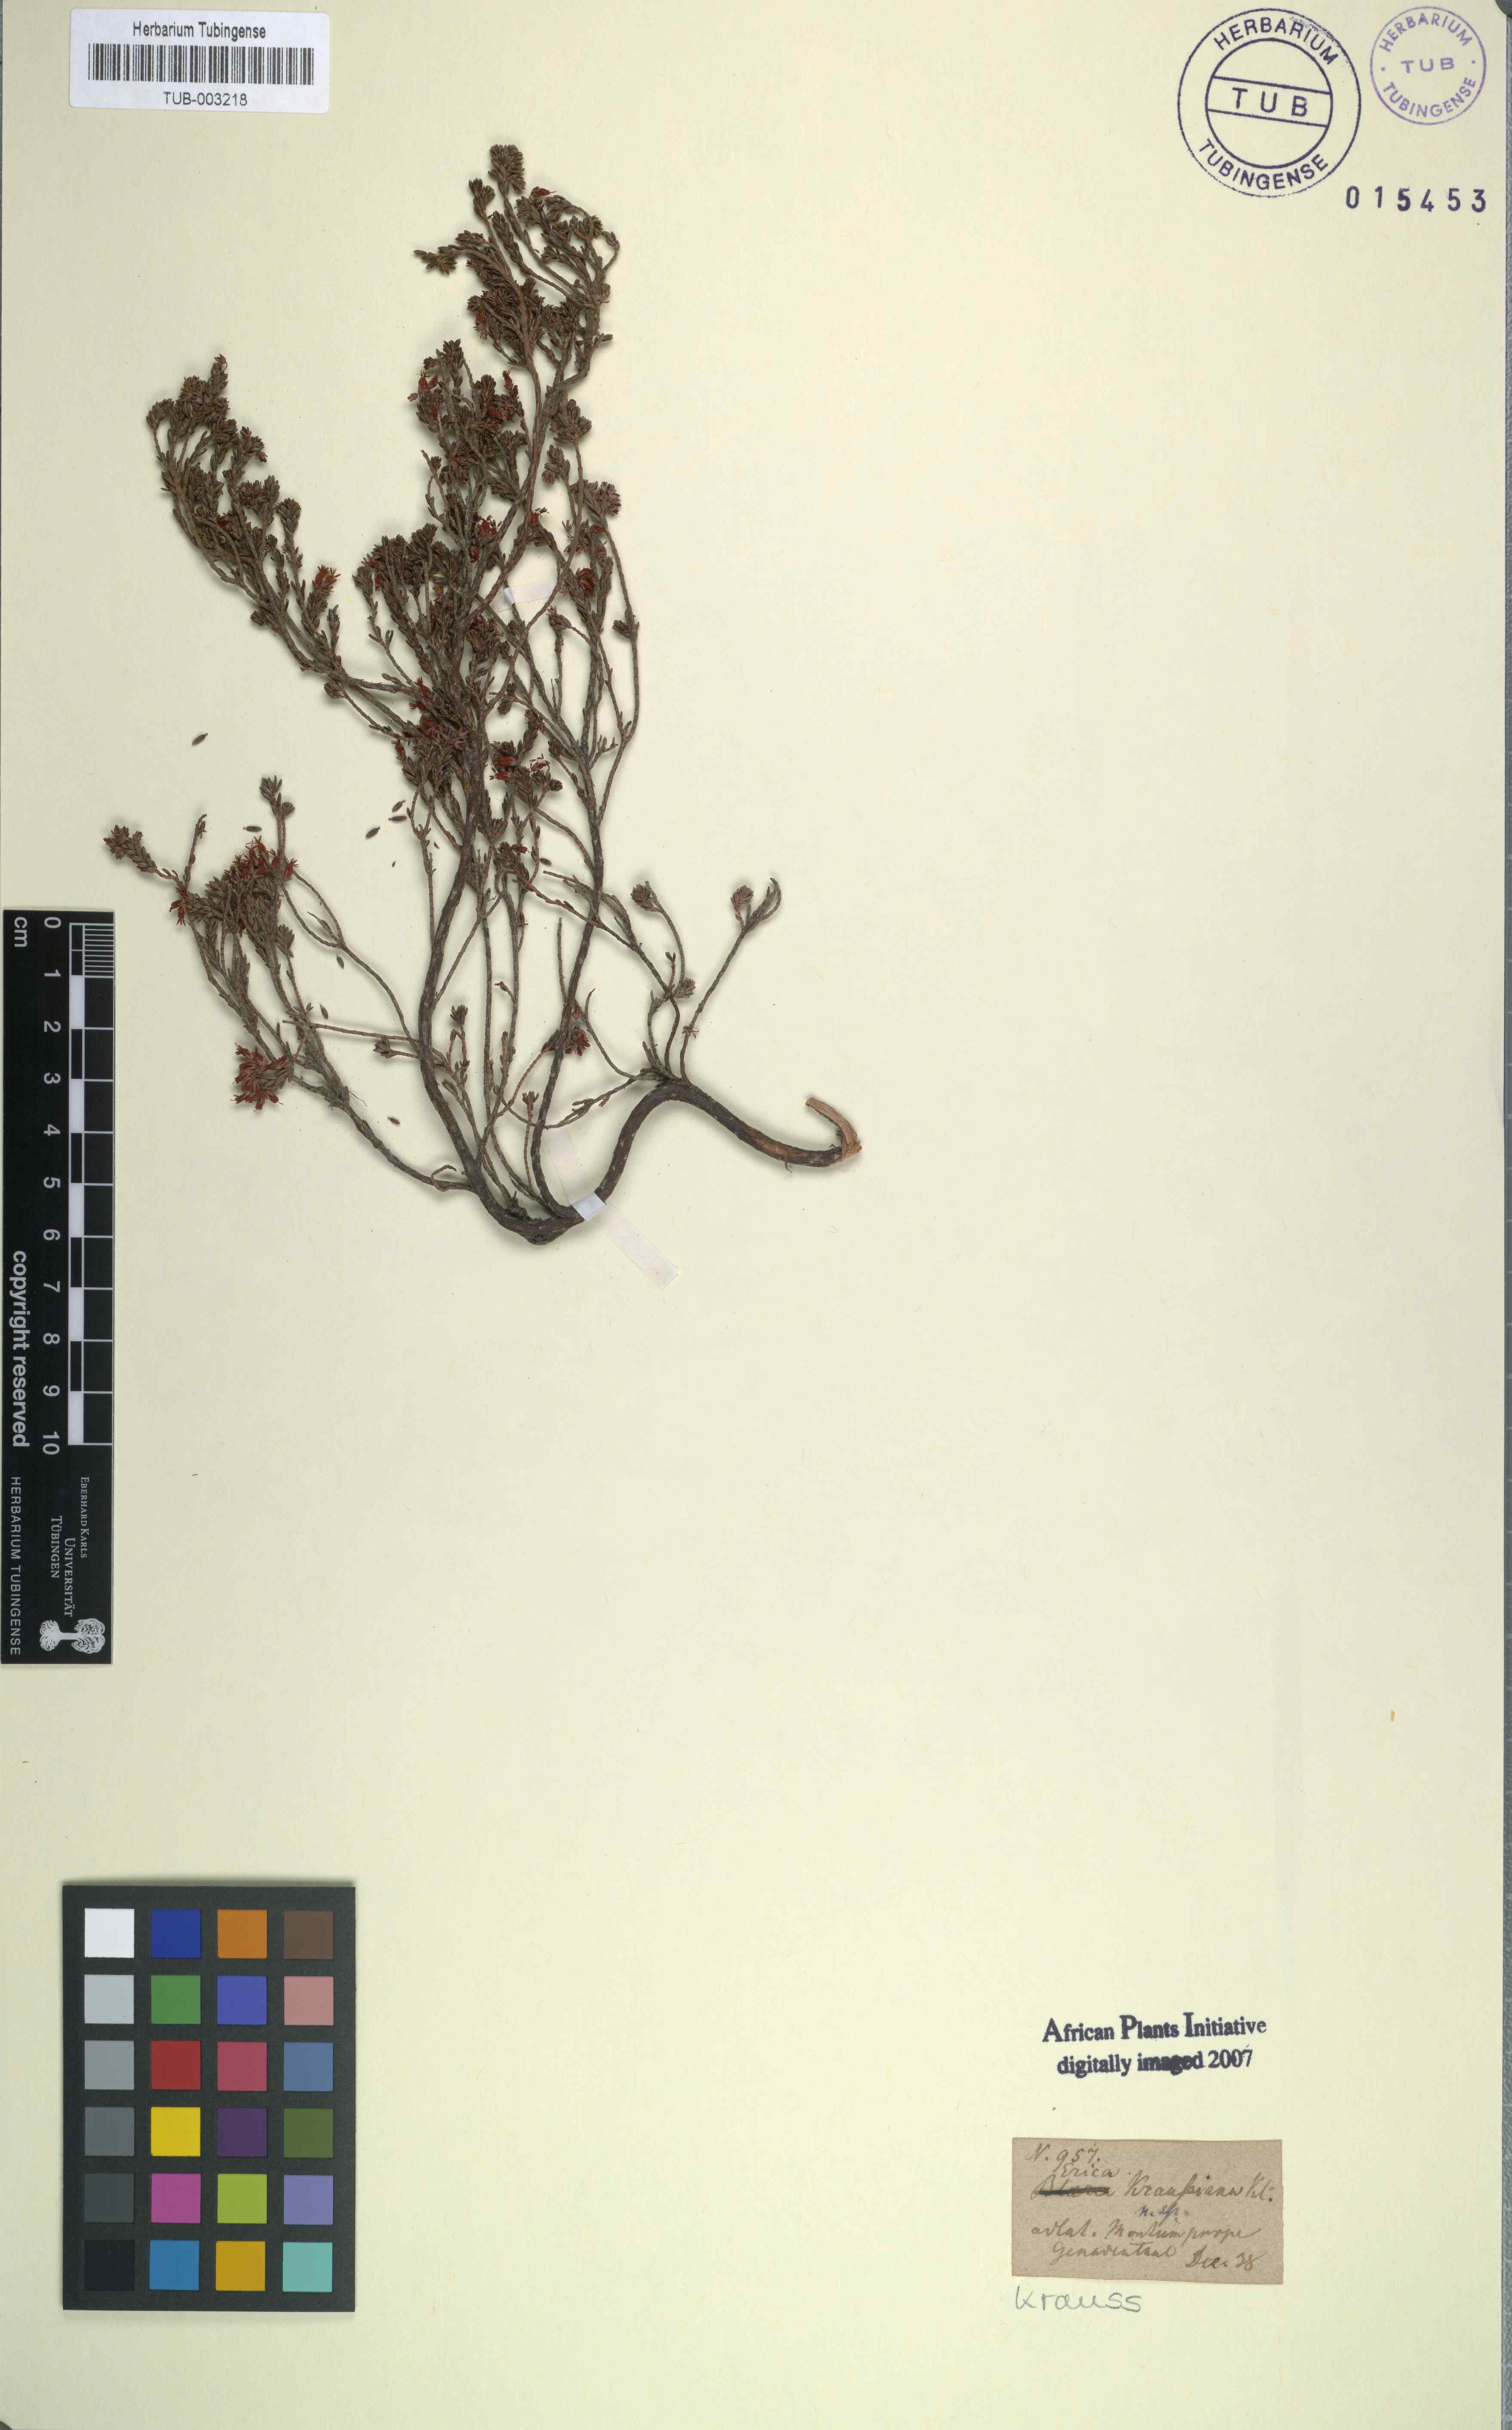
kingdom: Plantae
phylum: Tracheophyta
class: Magnoliopsida
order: Ericales
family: Ericaceae
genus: Erica
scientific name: Erica kraussiana
